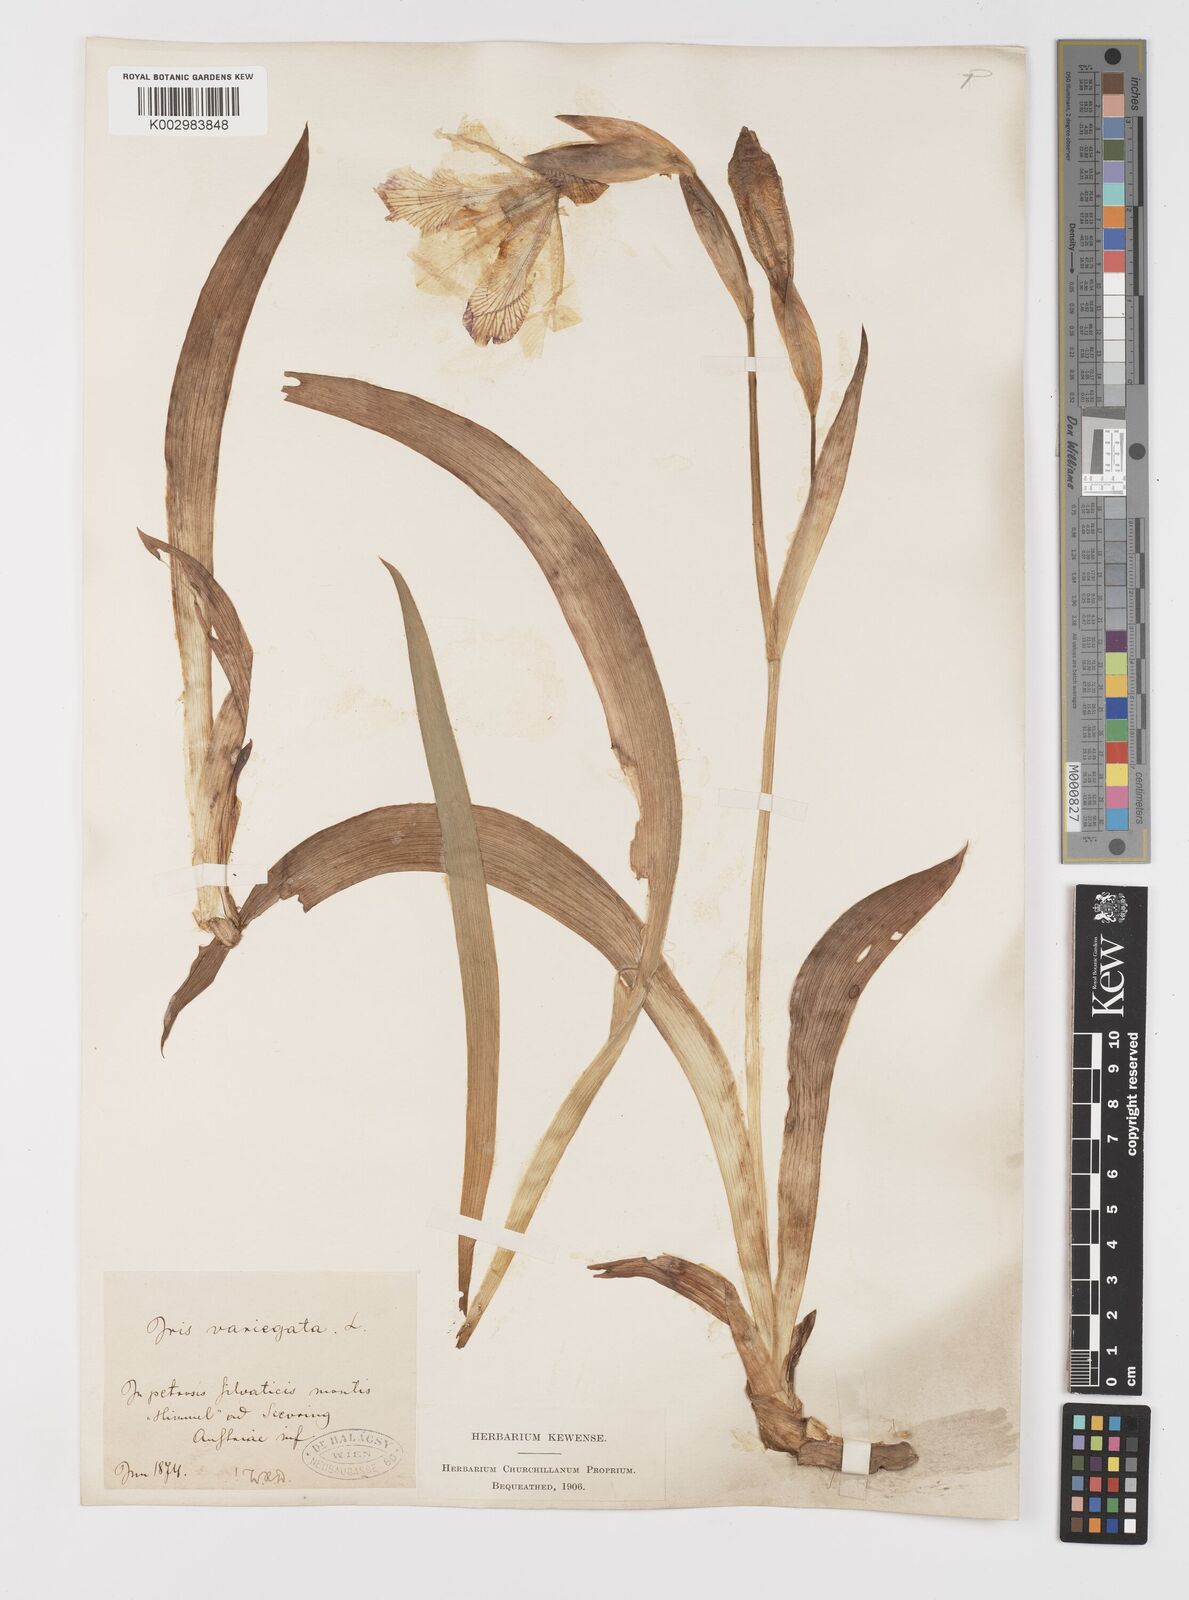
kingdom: Plantae
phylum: Tracheophyta
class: Liliopsida
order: Asparagales
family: Iridaceae
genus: Iris
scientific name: Iris variegata
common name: Hungarian iris
